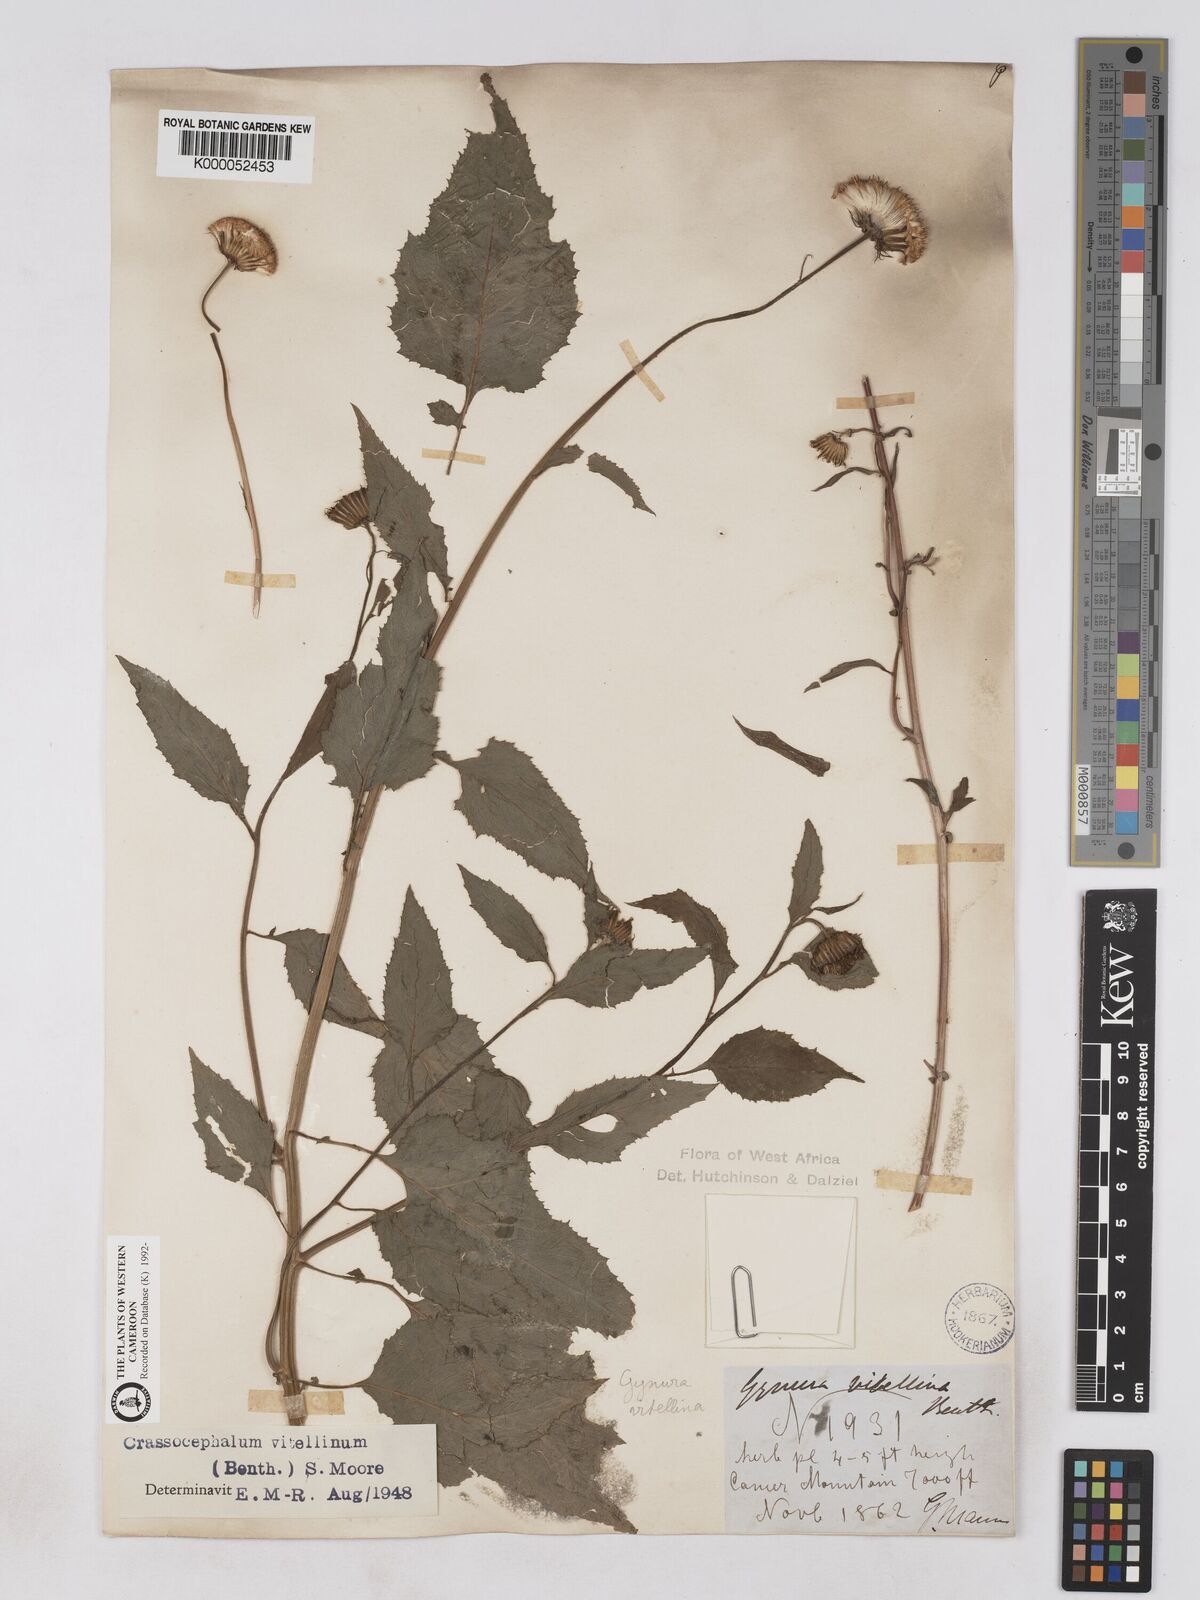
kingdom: Plantae
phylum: Tracheophyta
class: Magnoliopsida
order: Asterales
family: Asteraceae
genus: Crassocephalum
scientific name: Crassocephalum bougheyanum
